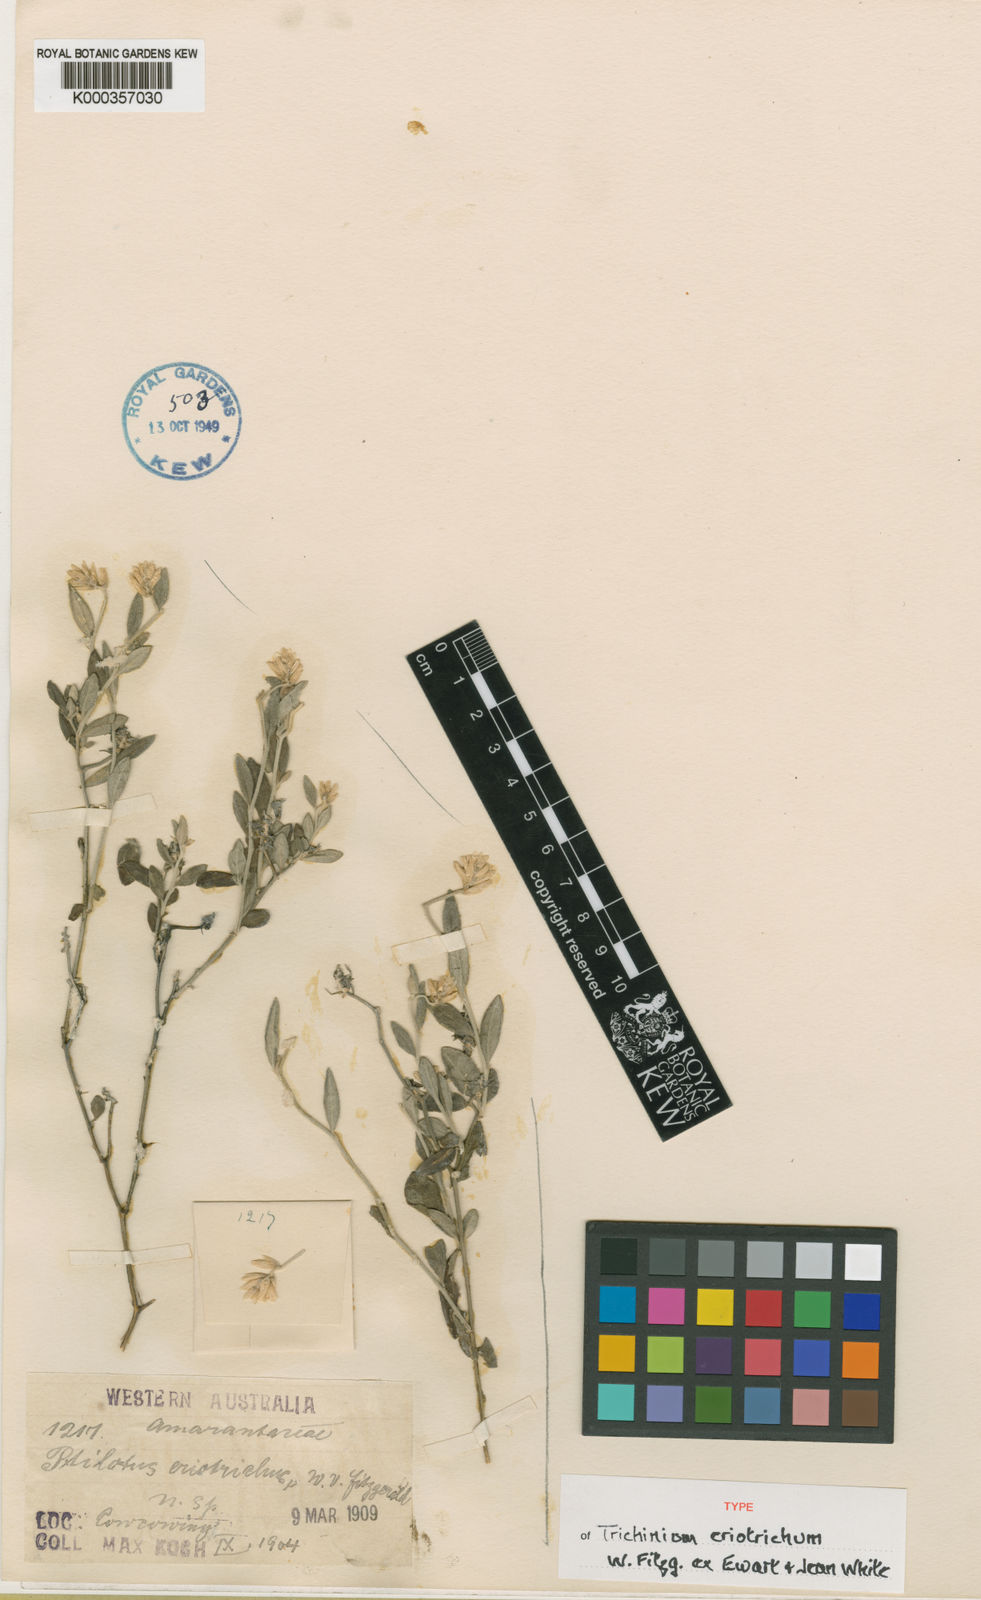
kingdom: Plantae
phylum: Tracheophyta
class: Magnoliopsida
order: Caryophyllales
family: Amaranthaceae
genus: Ptilotus
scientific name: Ptilotus
